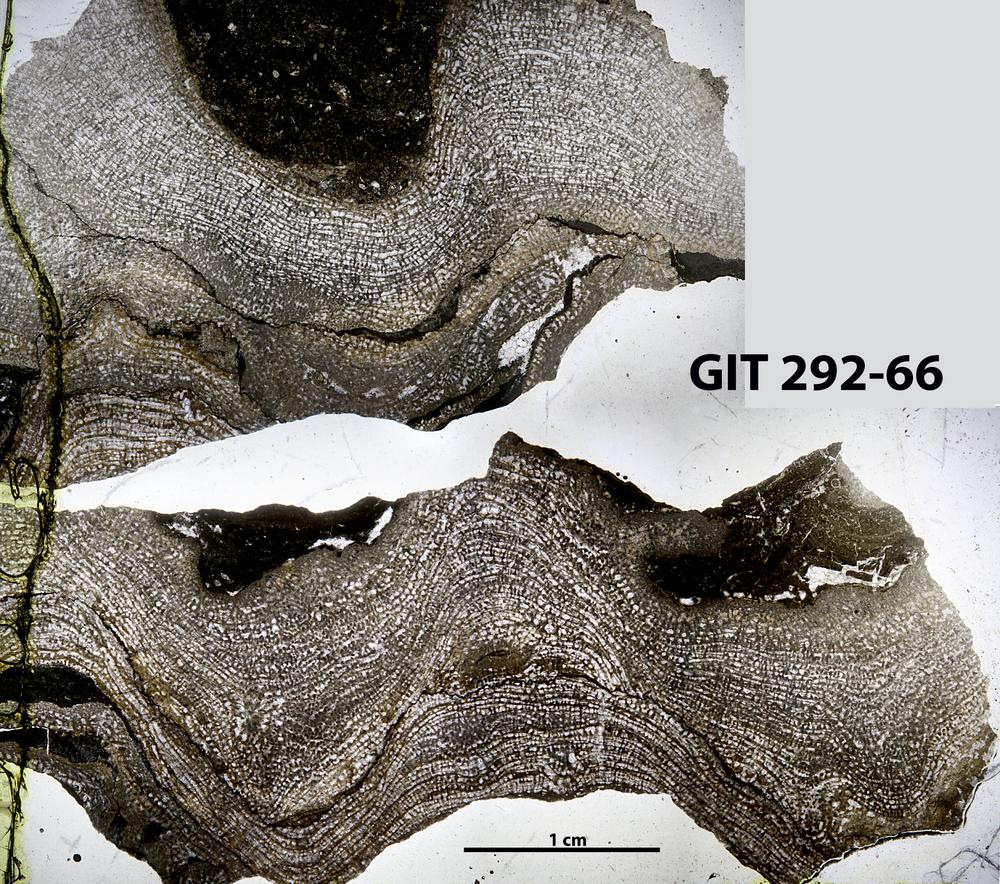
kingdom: Animalia
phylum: Porifera
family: Stromatoporidae
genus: Stromatopora
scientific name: Stromatopora
